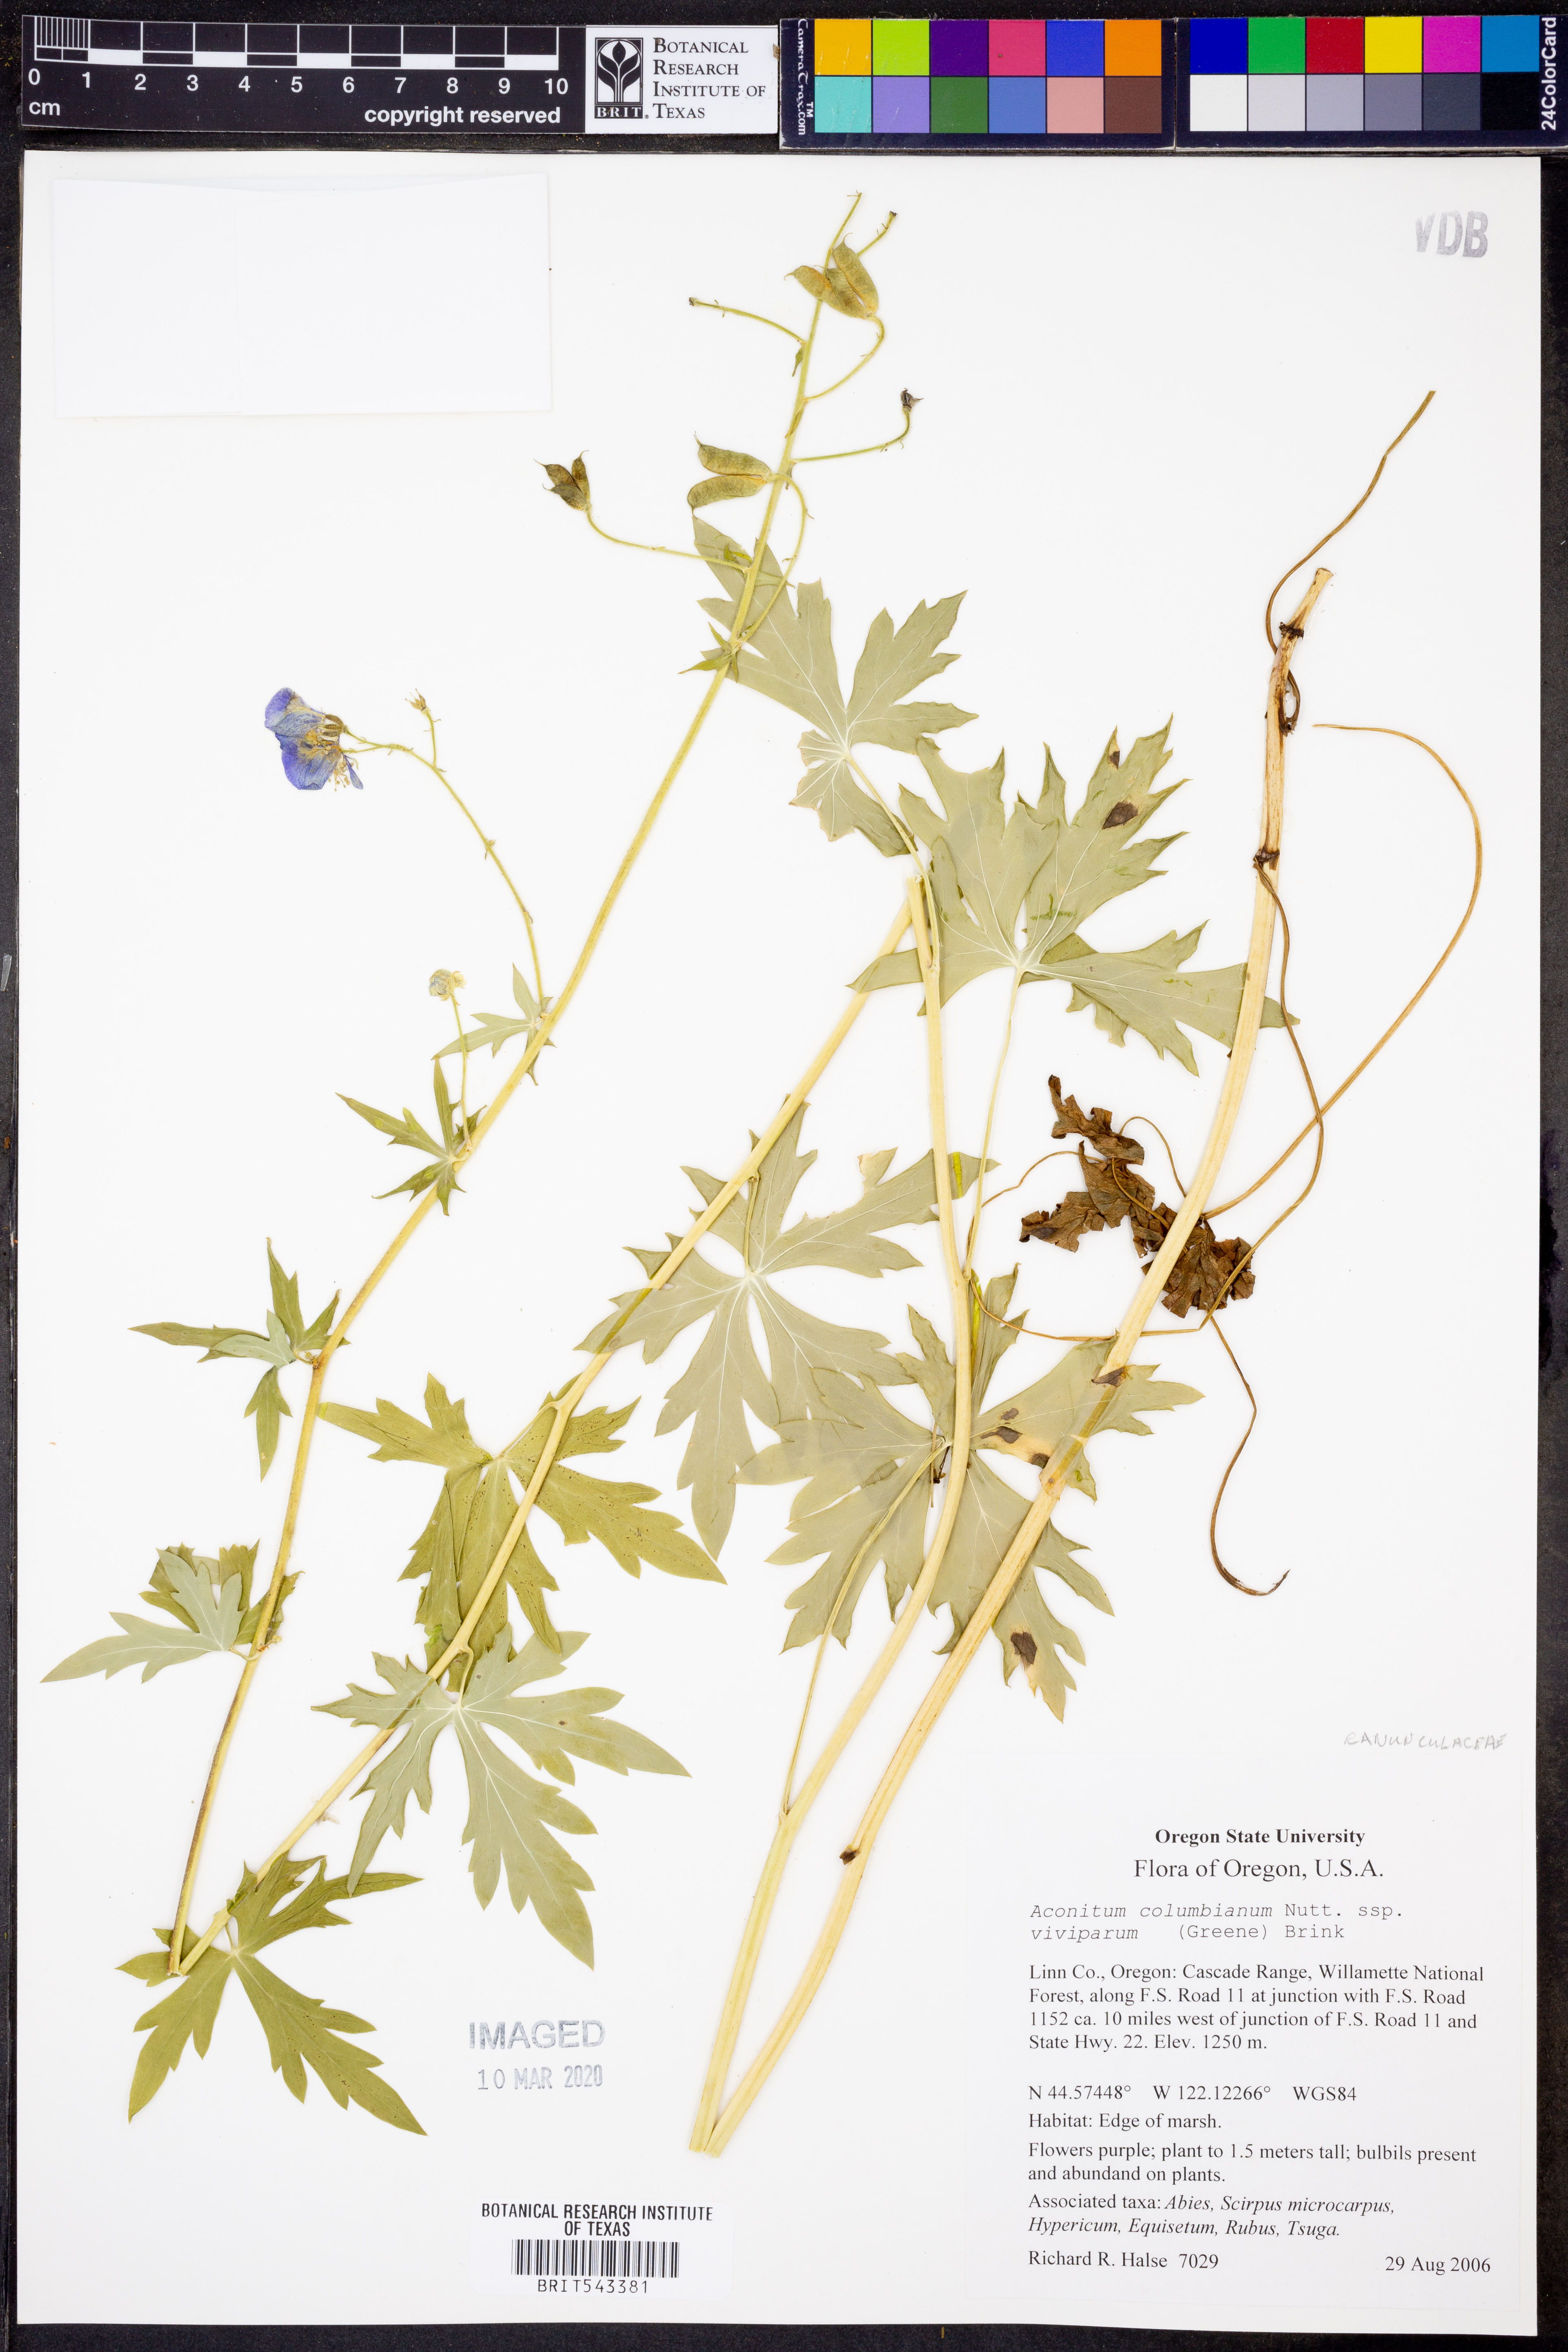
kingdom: Plantae
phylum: Tracheophyta
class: Magnoliopsida
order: Ranunculales
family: Ranunculaceae
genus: Aconitum
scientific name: Aconitum columbianum
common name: Columbia aconite
